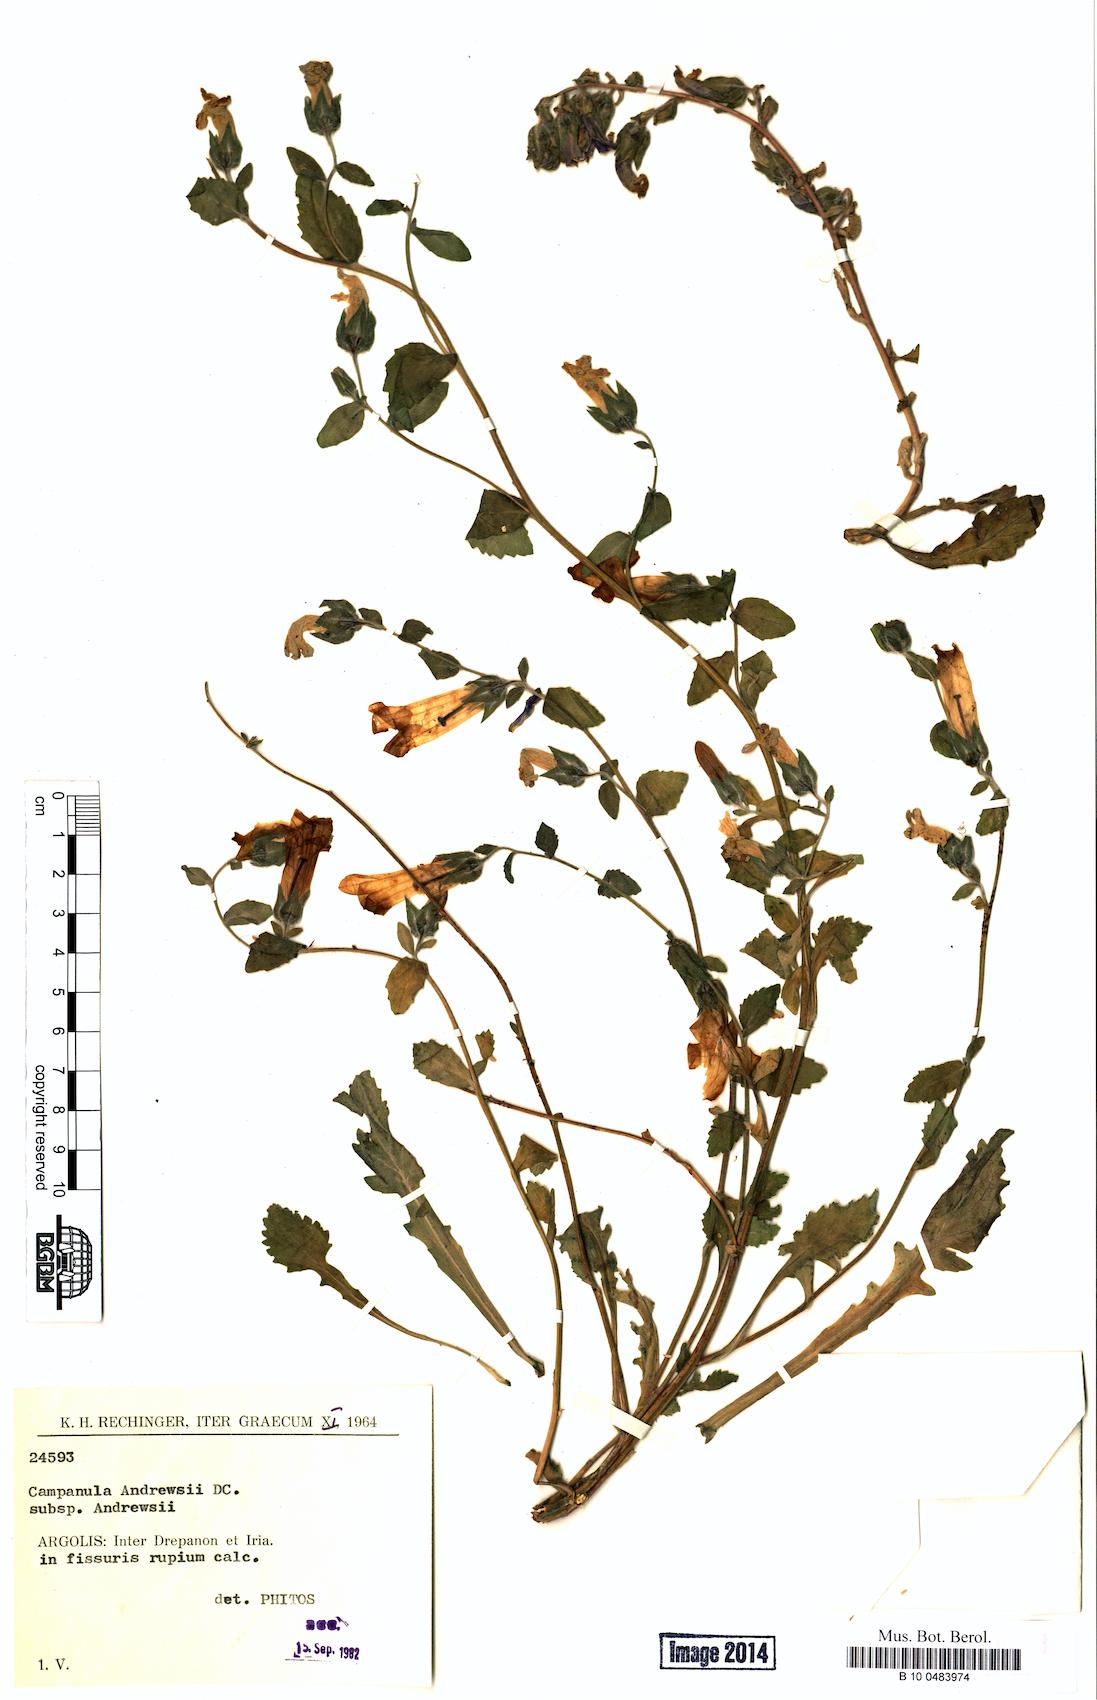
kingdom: Plantae
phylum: Tracheophyta
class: Magnoliopsida
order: Asterales
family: Campanulaceae
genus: Campanula
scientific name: Campanula andrewsii
